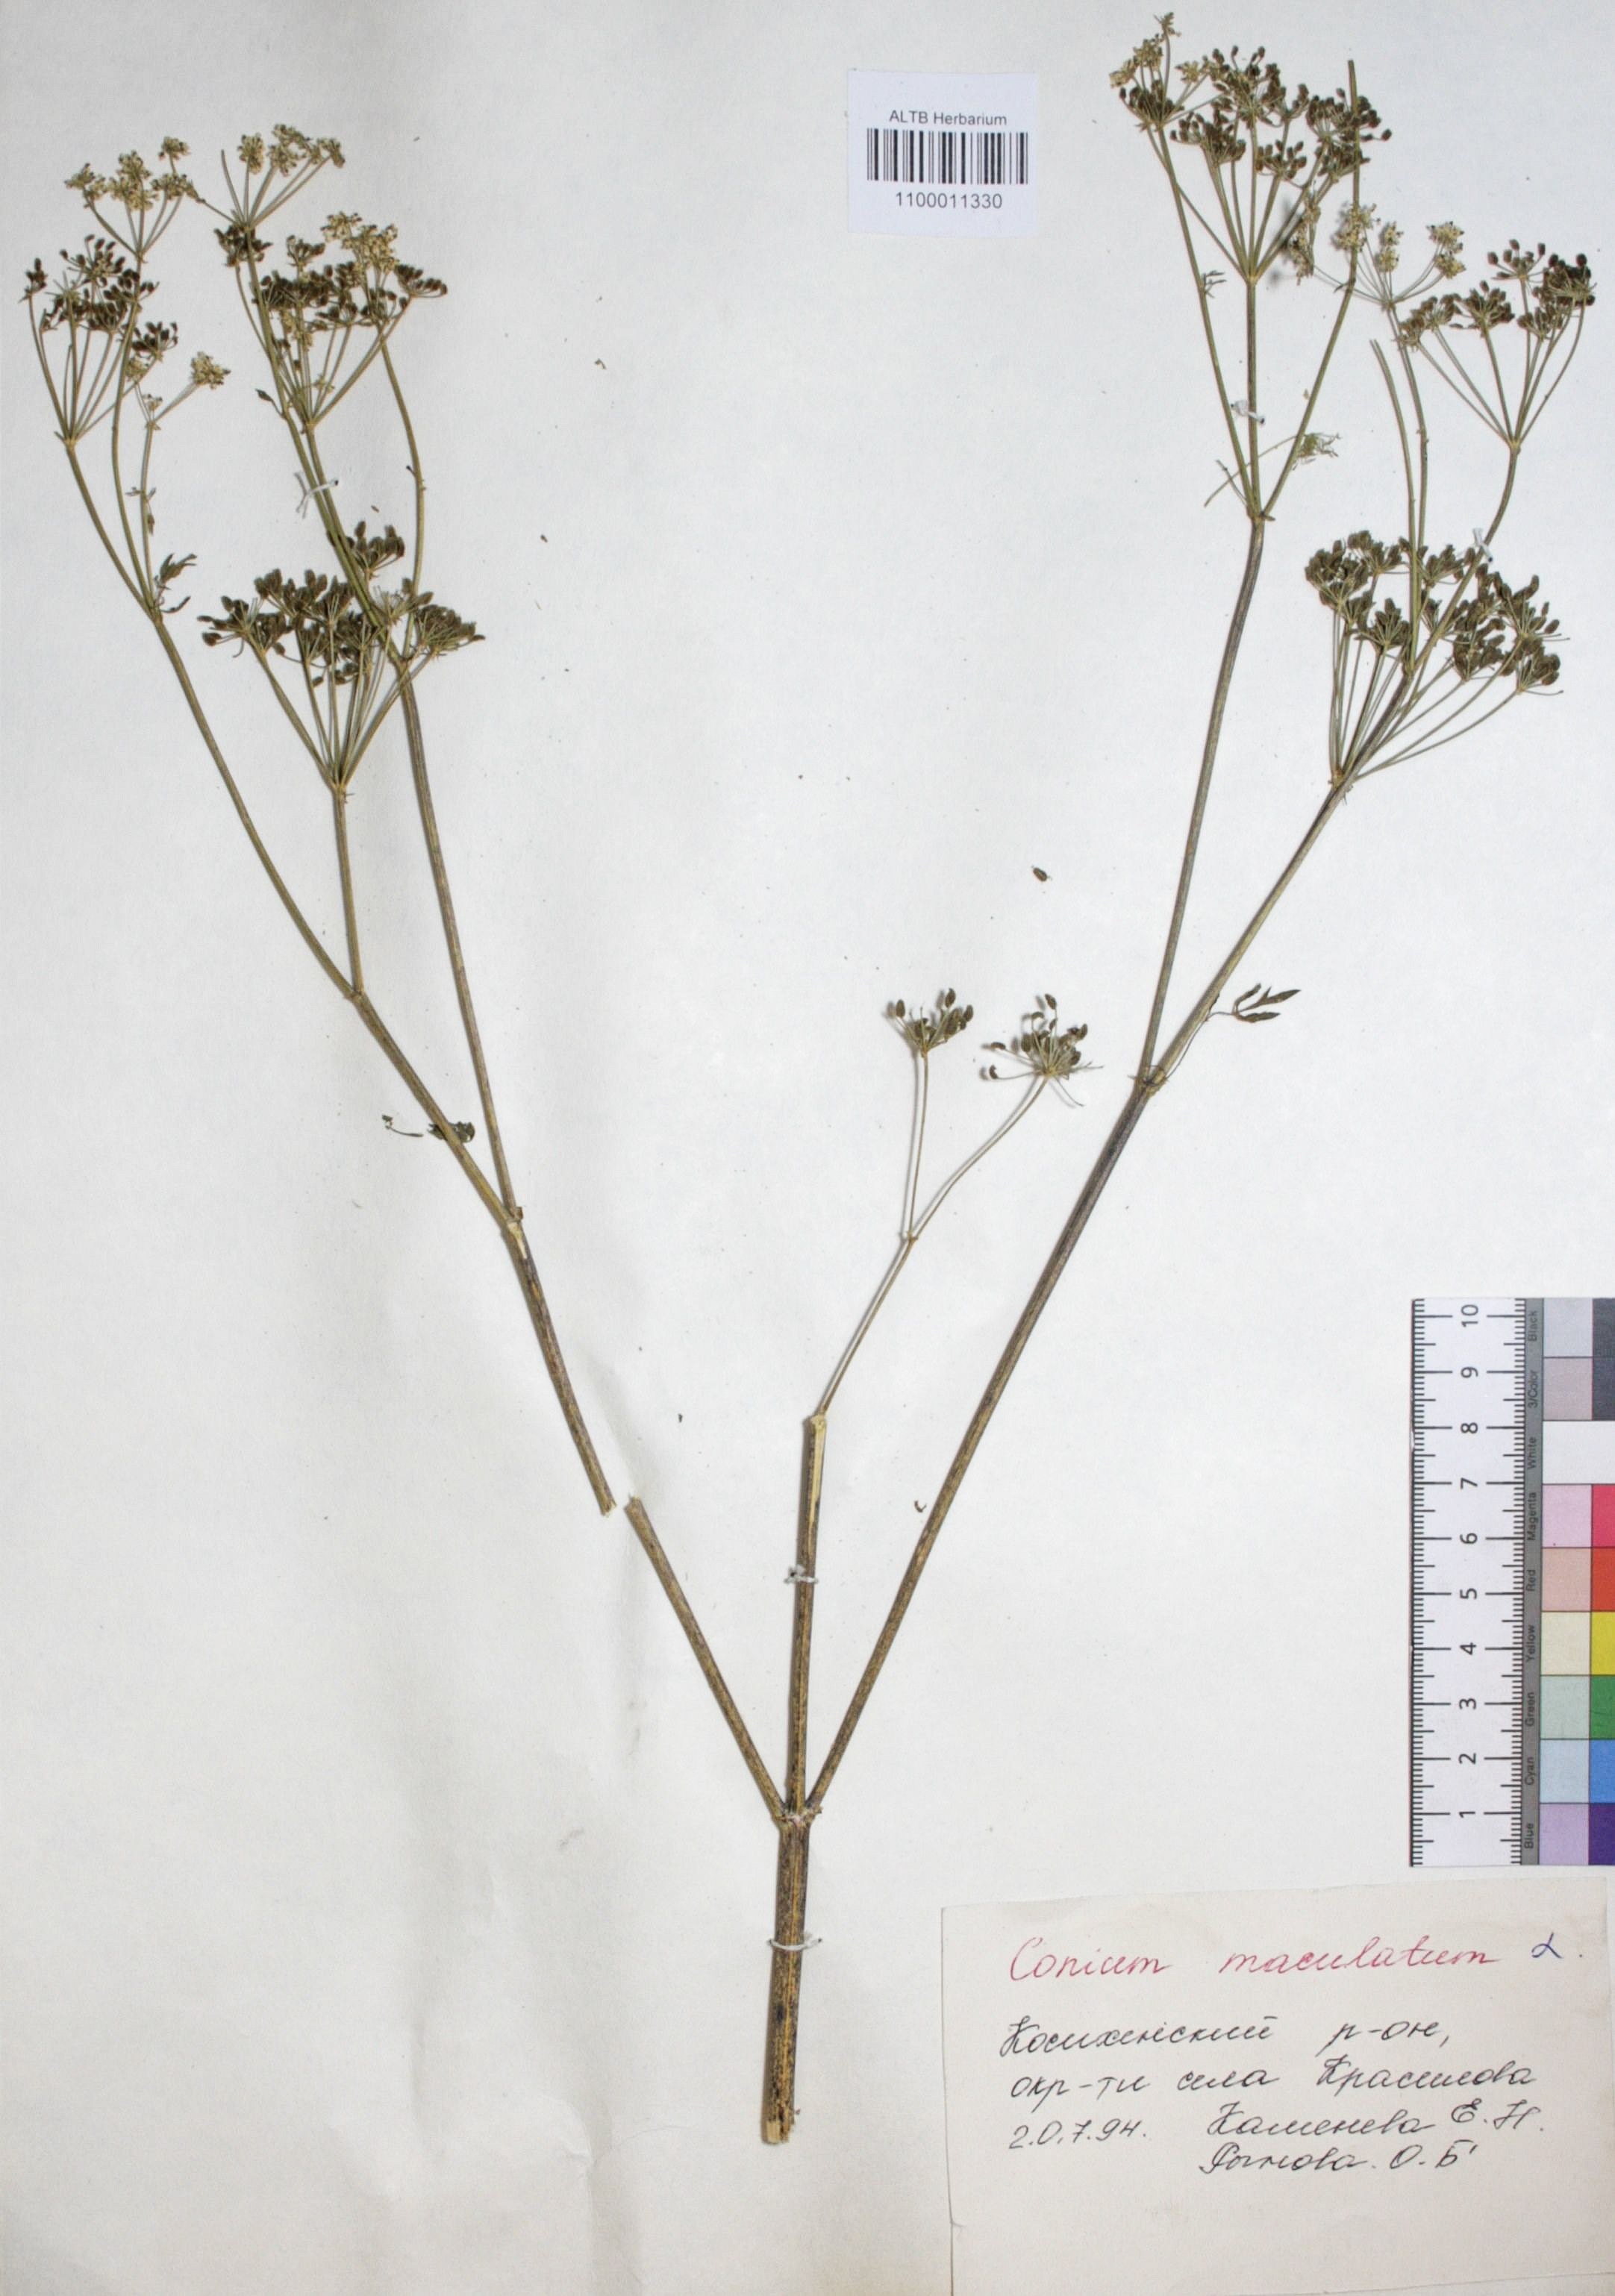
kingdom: Plantae
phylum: Tracheophyta
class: Magnoliopsida
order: Apiales
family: Apiaceae
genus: Conium
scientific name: Conium maculatum
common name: Hemlock
